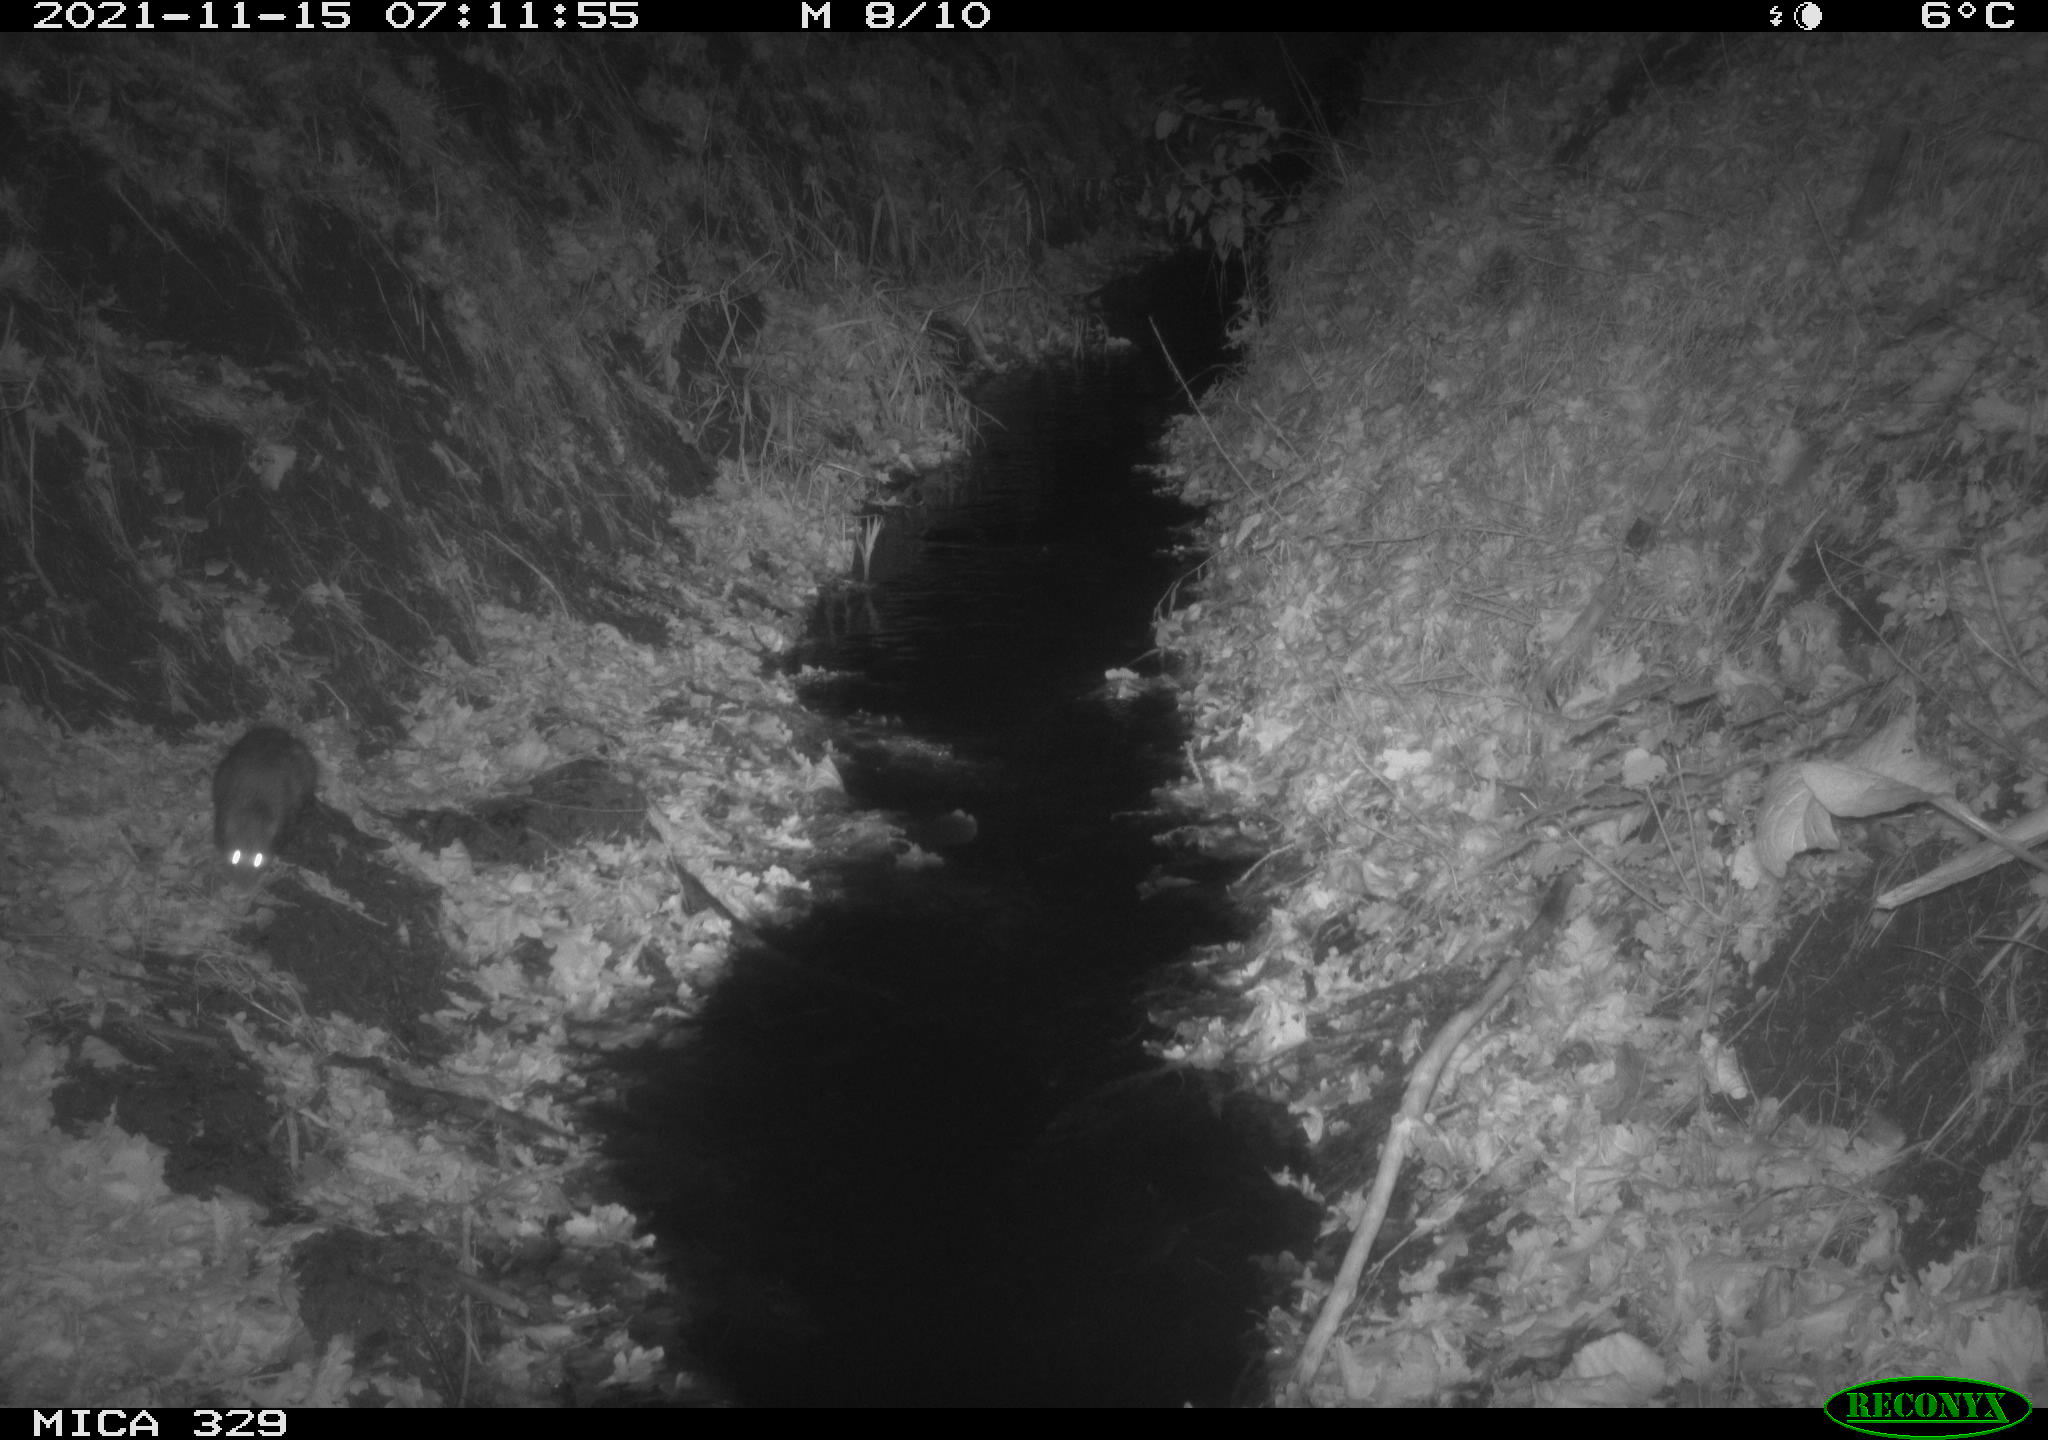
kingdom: Animalia
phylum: Chordata
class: Mammalia
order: Rodentia
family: Muridae
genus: Rattus
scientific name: Rattus norvegicus
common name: Brown rat
